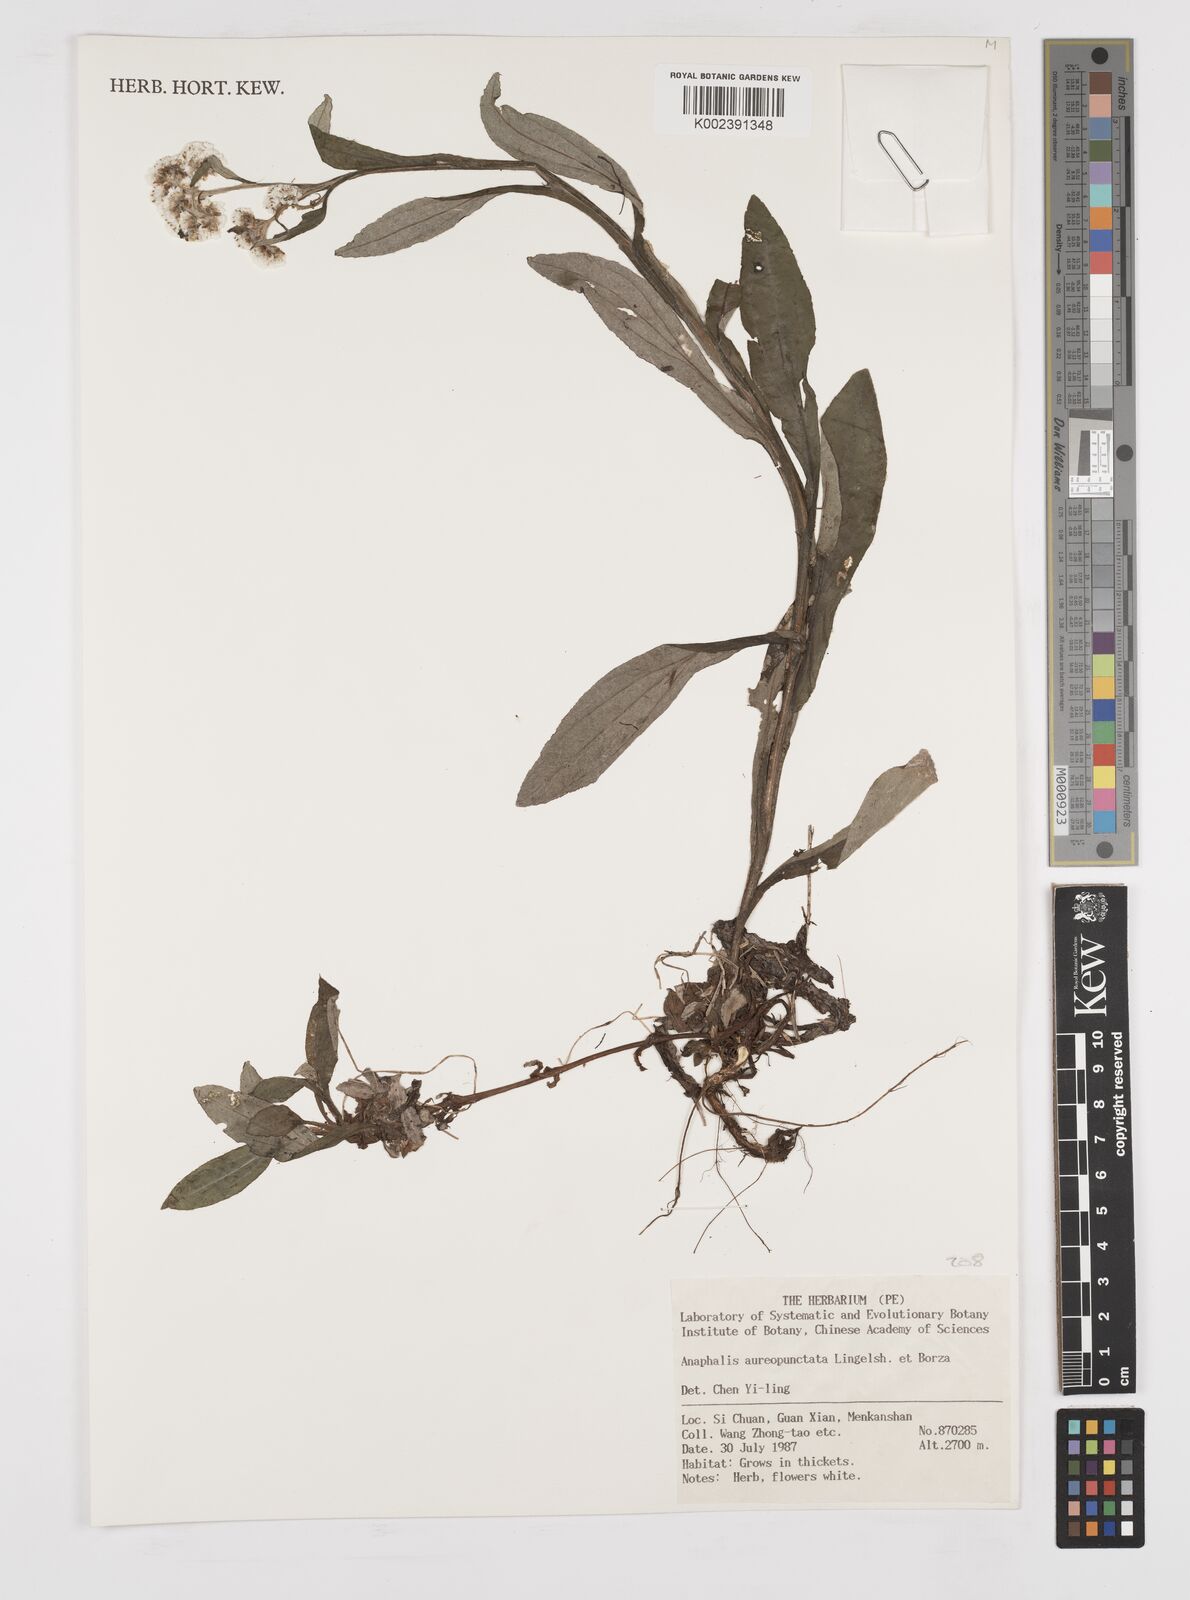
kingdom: Plantae
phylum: Tracheophyta
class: Magnoliopsida
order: Asterales
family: Asteraceae
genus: Anaphalis
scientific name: Anaphalis aureopunctata
